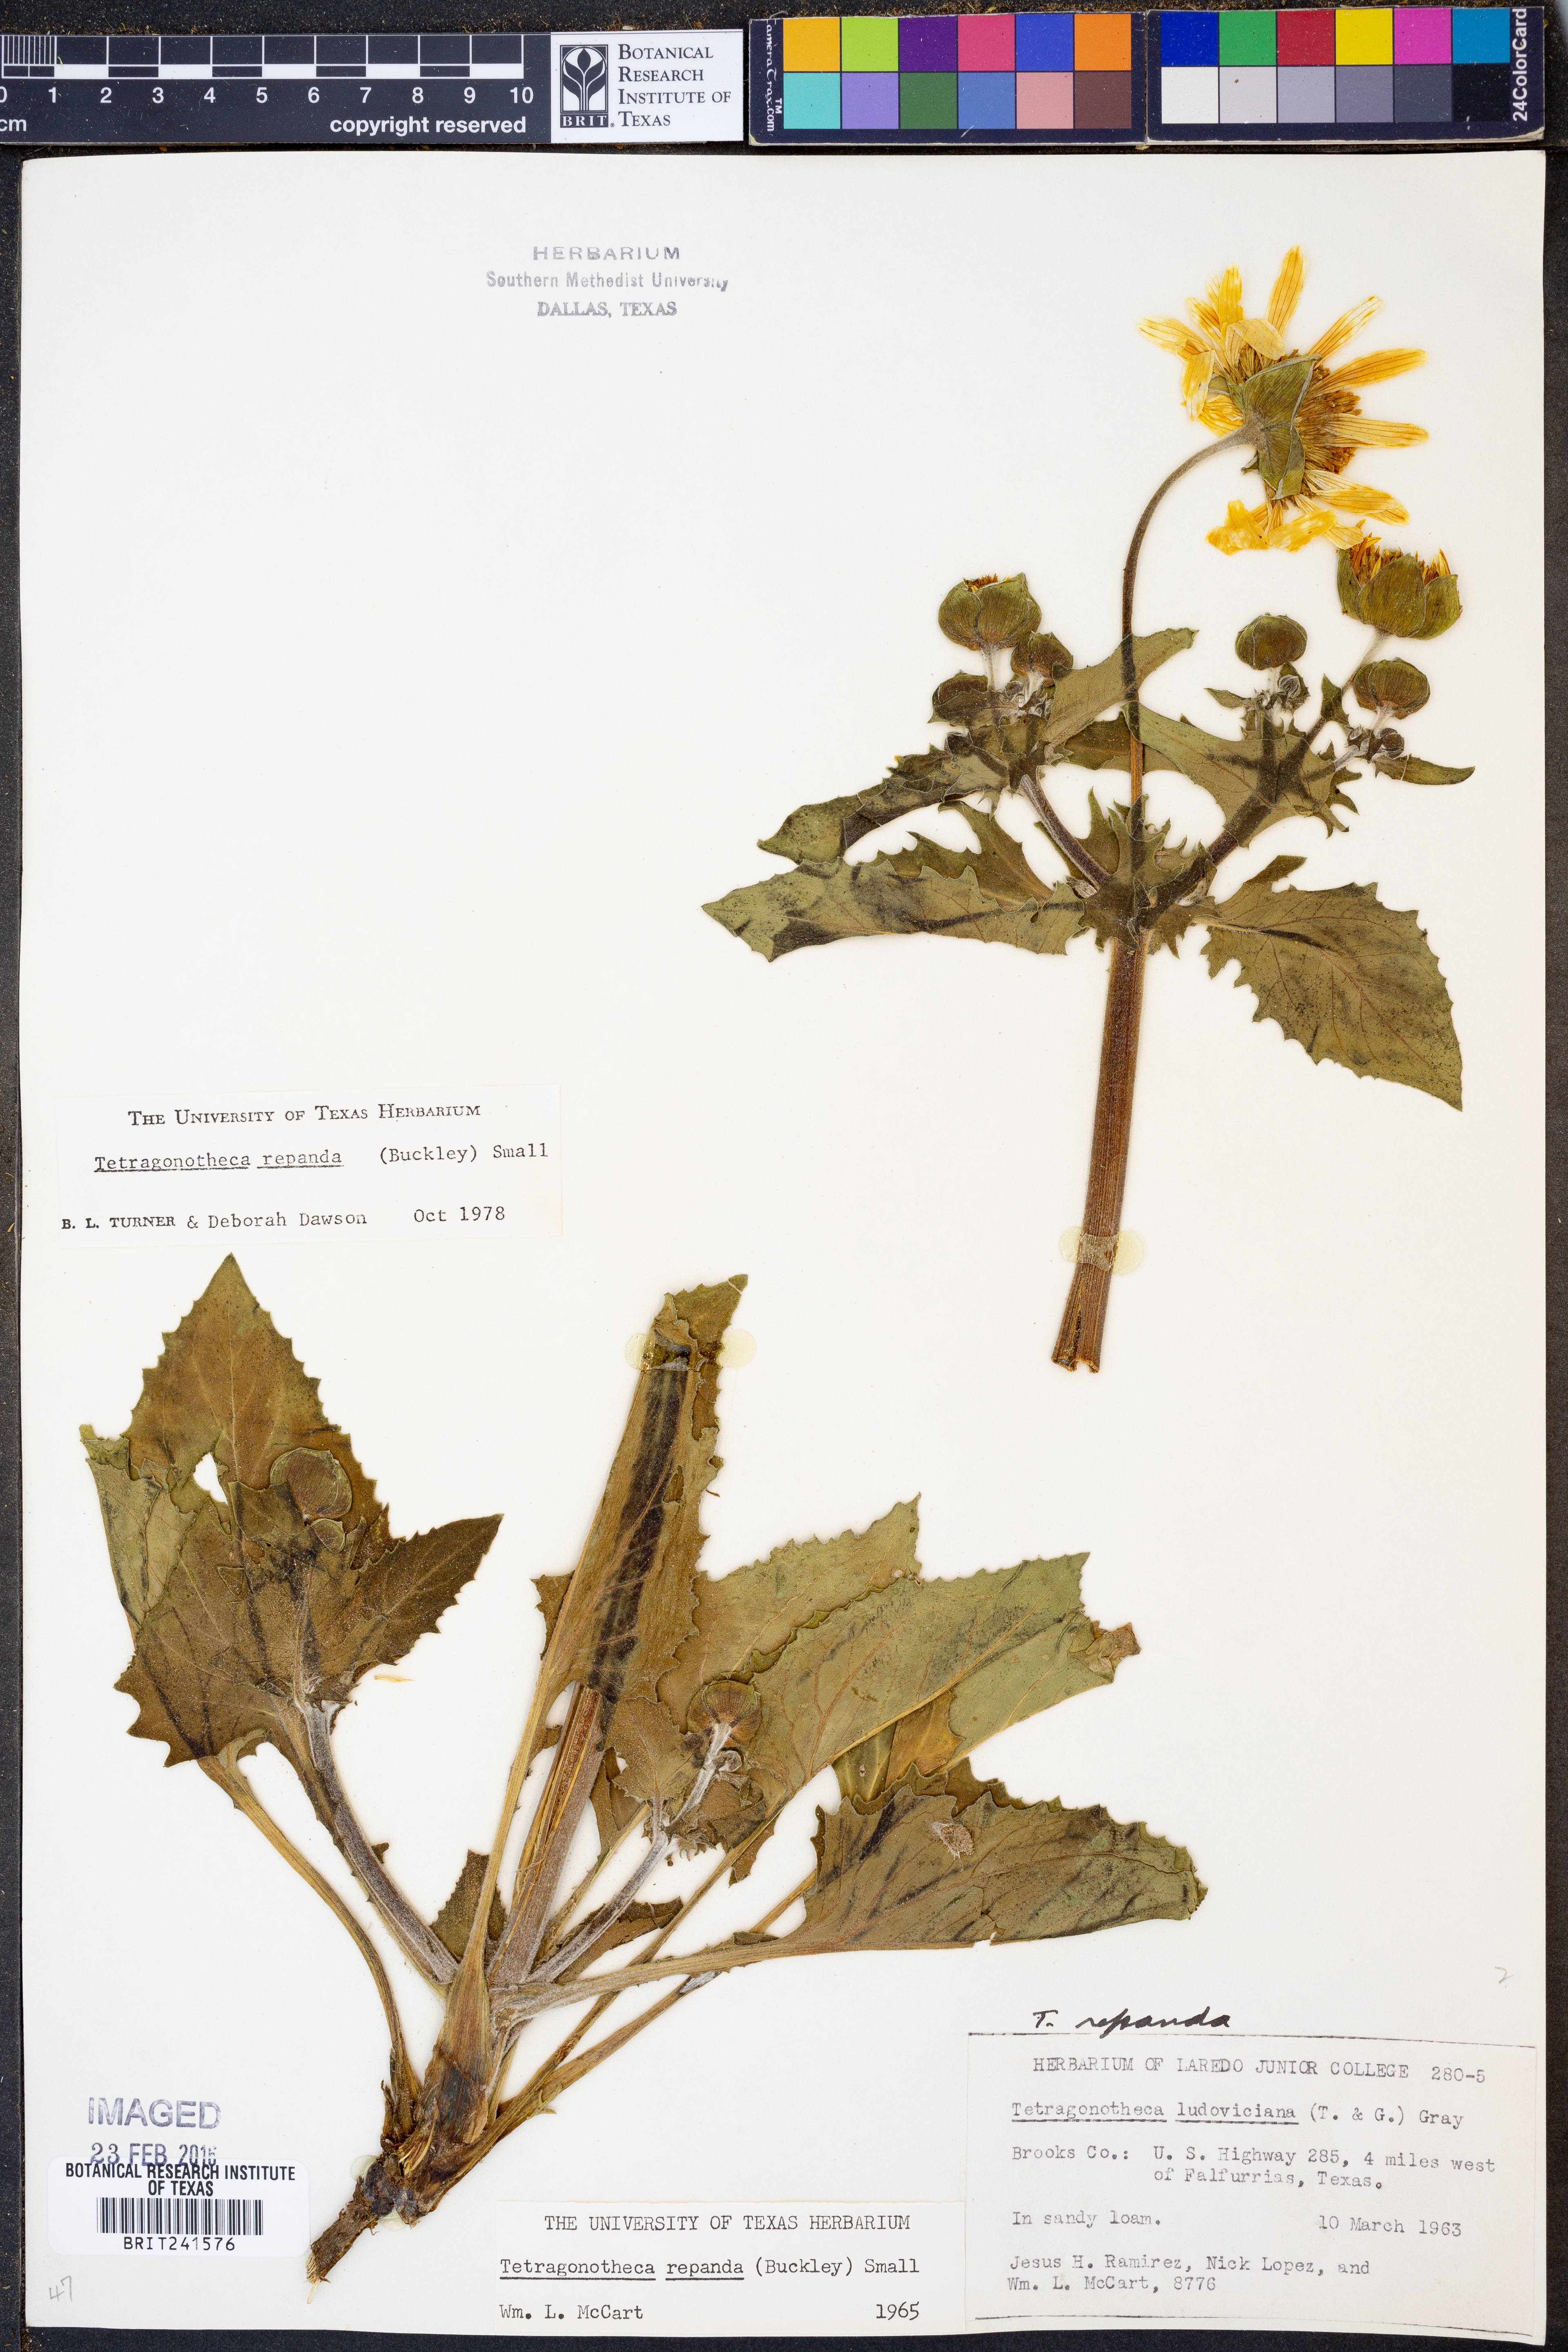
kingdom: Plantae
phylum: Tracheophyta
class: Magnoliopsida
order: Asterales
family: Asteraceae
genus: Tetragonotheca
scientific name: Tetragonotheca repanda
